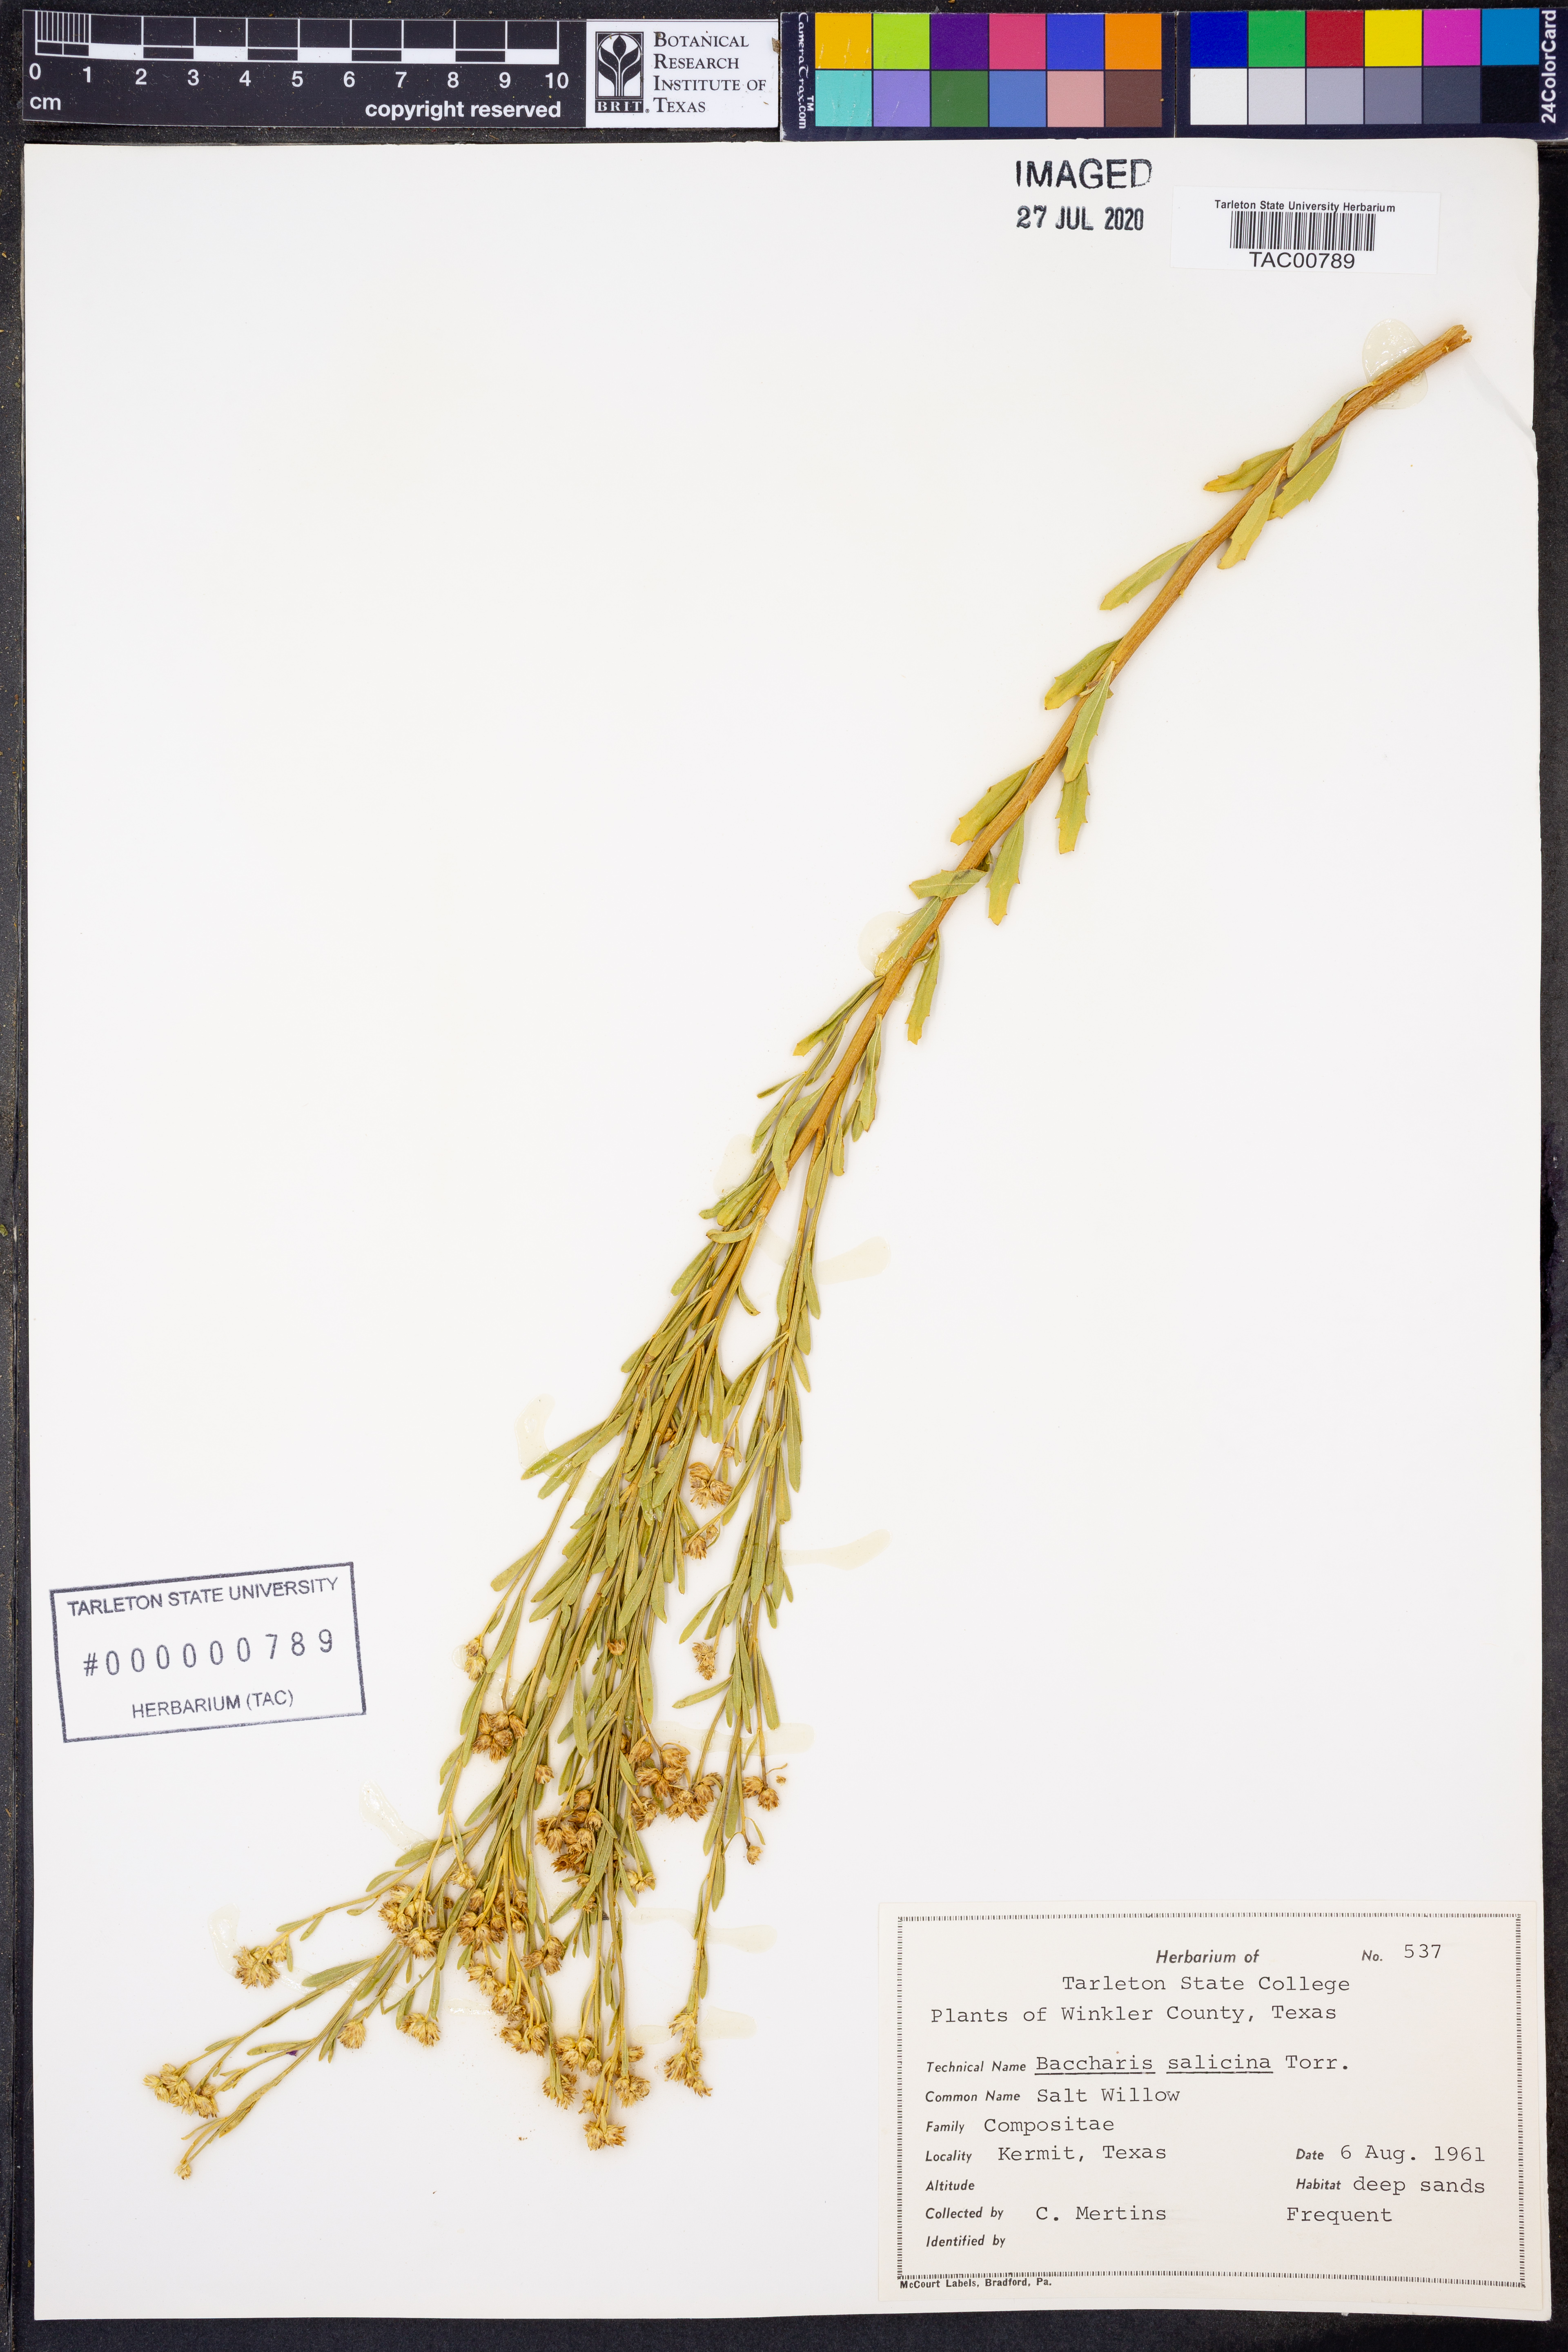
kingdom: Plantae
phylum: Tracheophyta
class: Magnoliopsida
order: Asterales
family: Asteraceae
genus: Baccharis
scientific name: Baccharis salicina
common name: Willow baccharis
